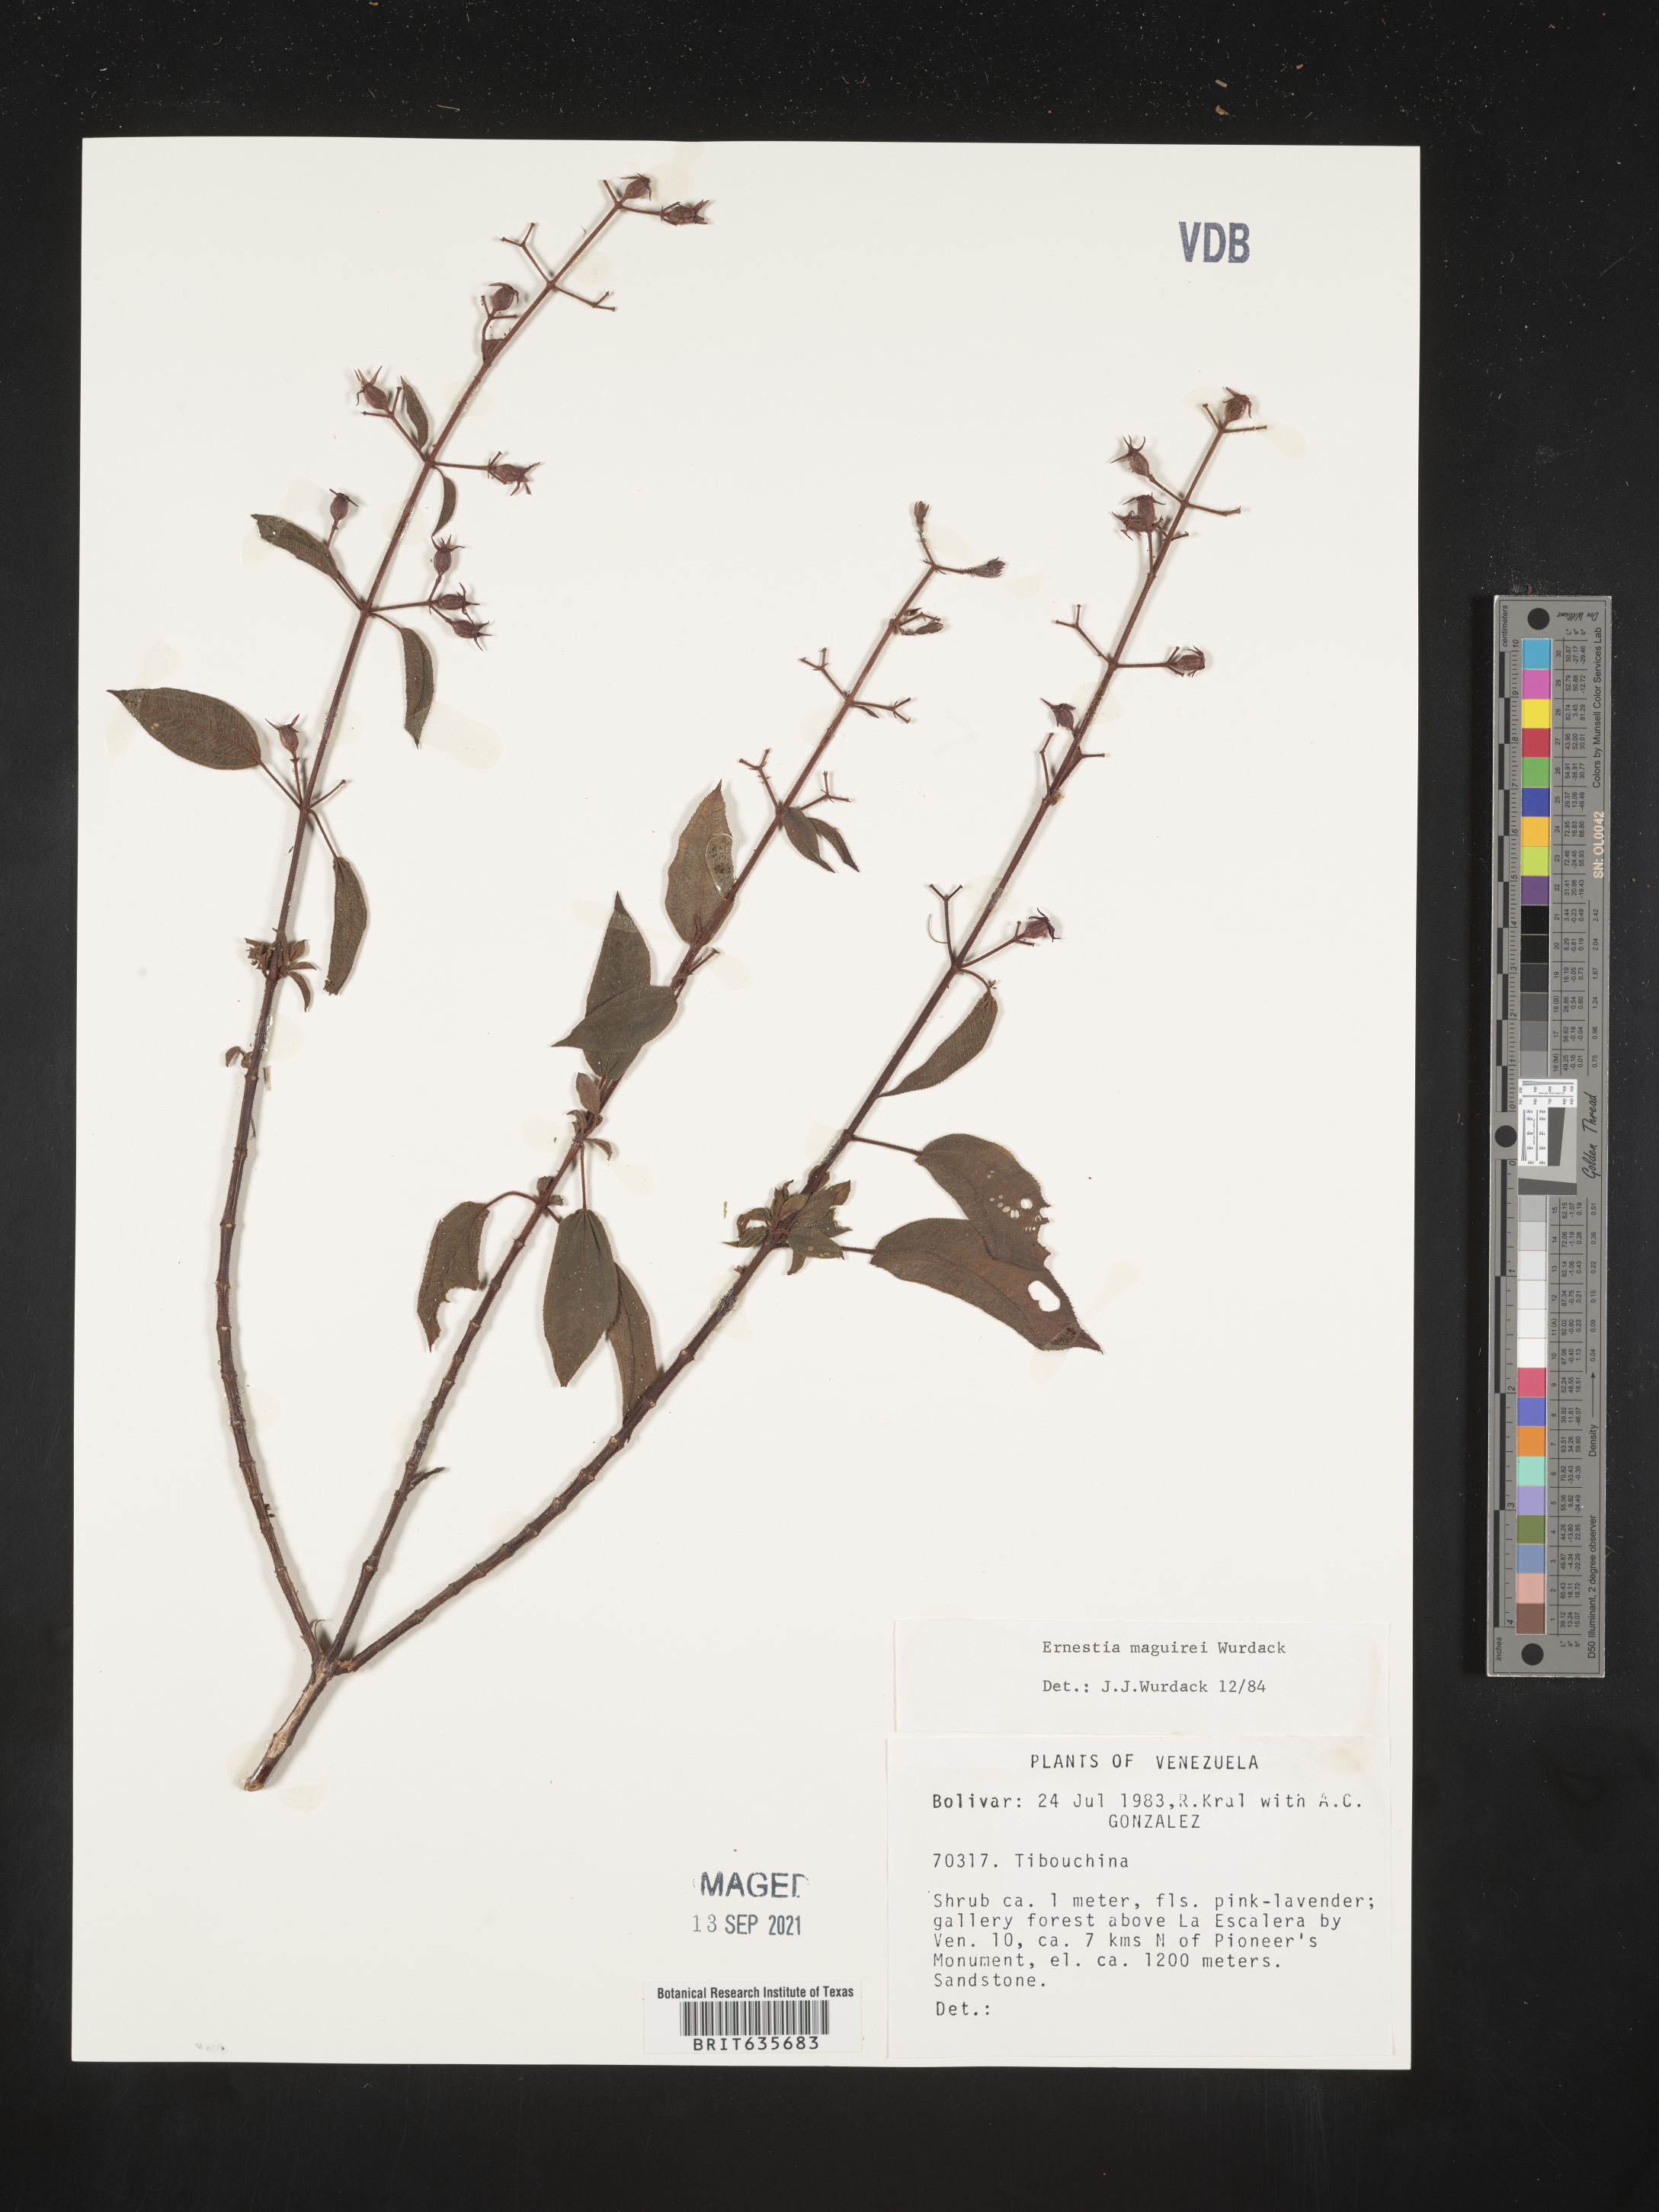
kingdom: Plantae
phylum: Tracheophyta
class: Magnoliopsida
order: Myrtales
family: Melastomataceae
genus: Ernestia
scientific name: Ernestia
